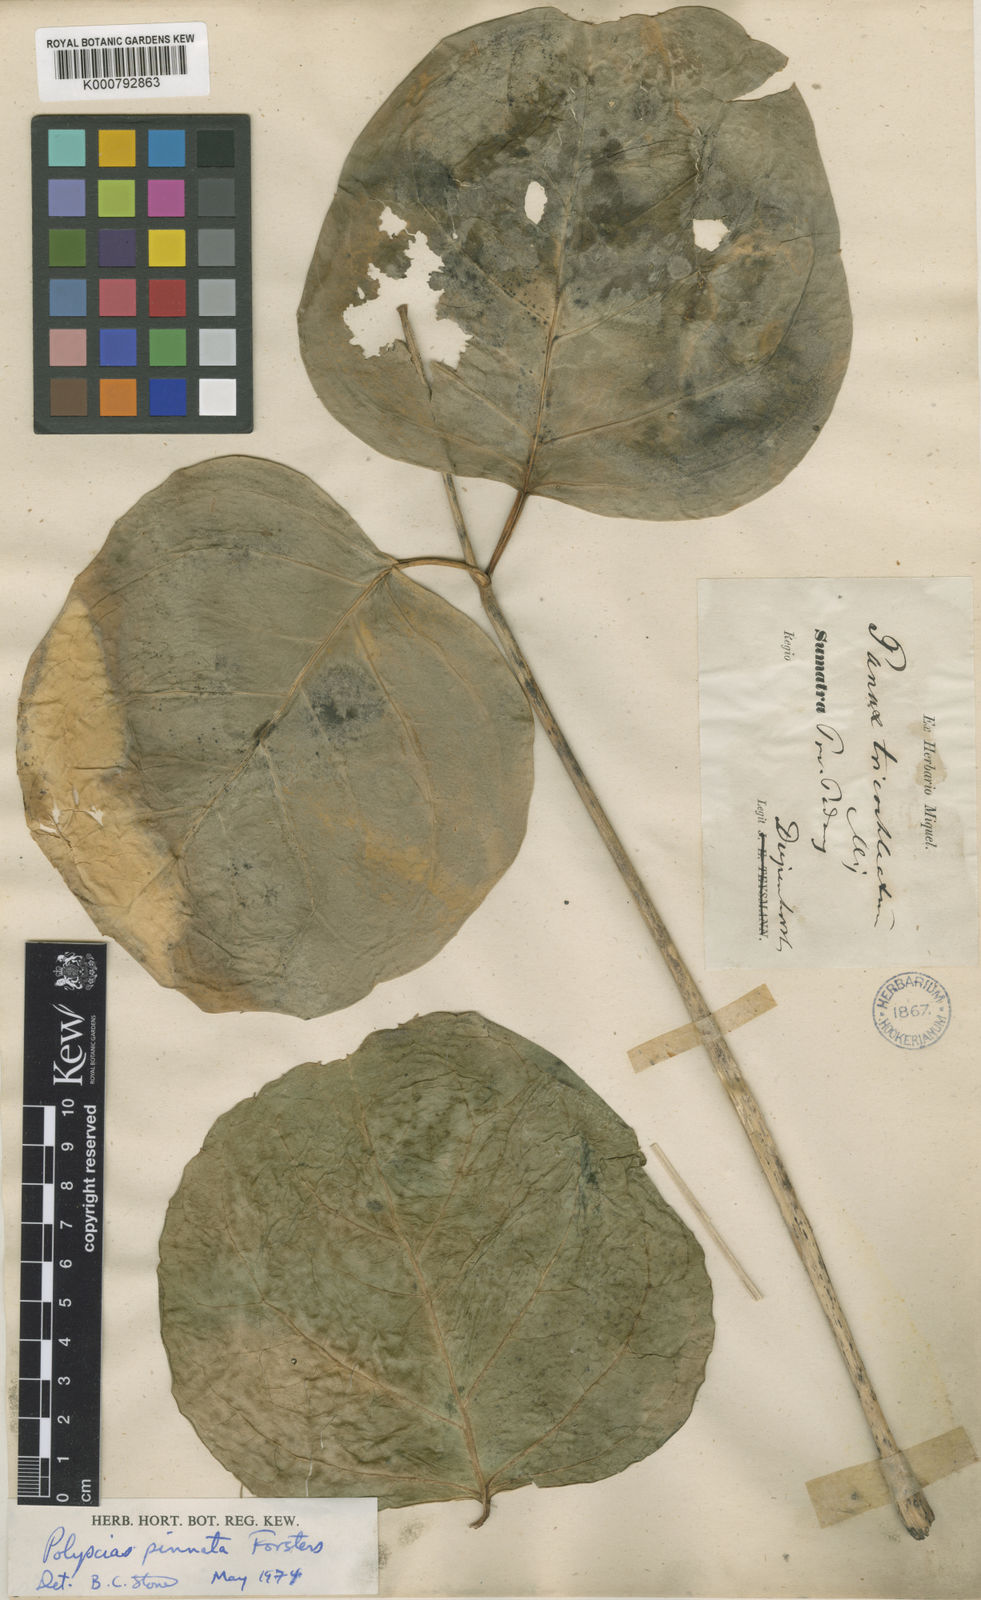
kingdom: Plantae
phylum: Tracheophyta
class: Magnoliopsida
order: Apiales
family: Araliaceae
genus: Polyscias
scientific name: Polyscias scutellaria
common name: Dinnerplate-aralia
